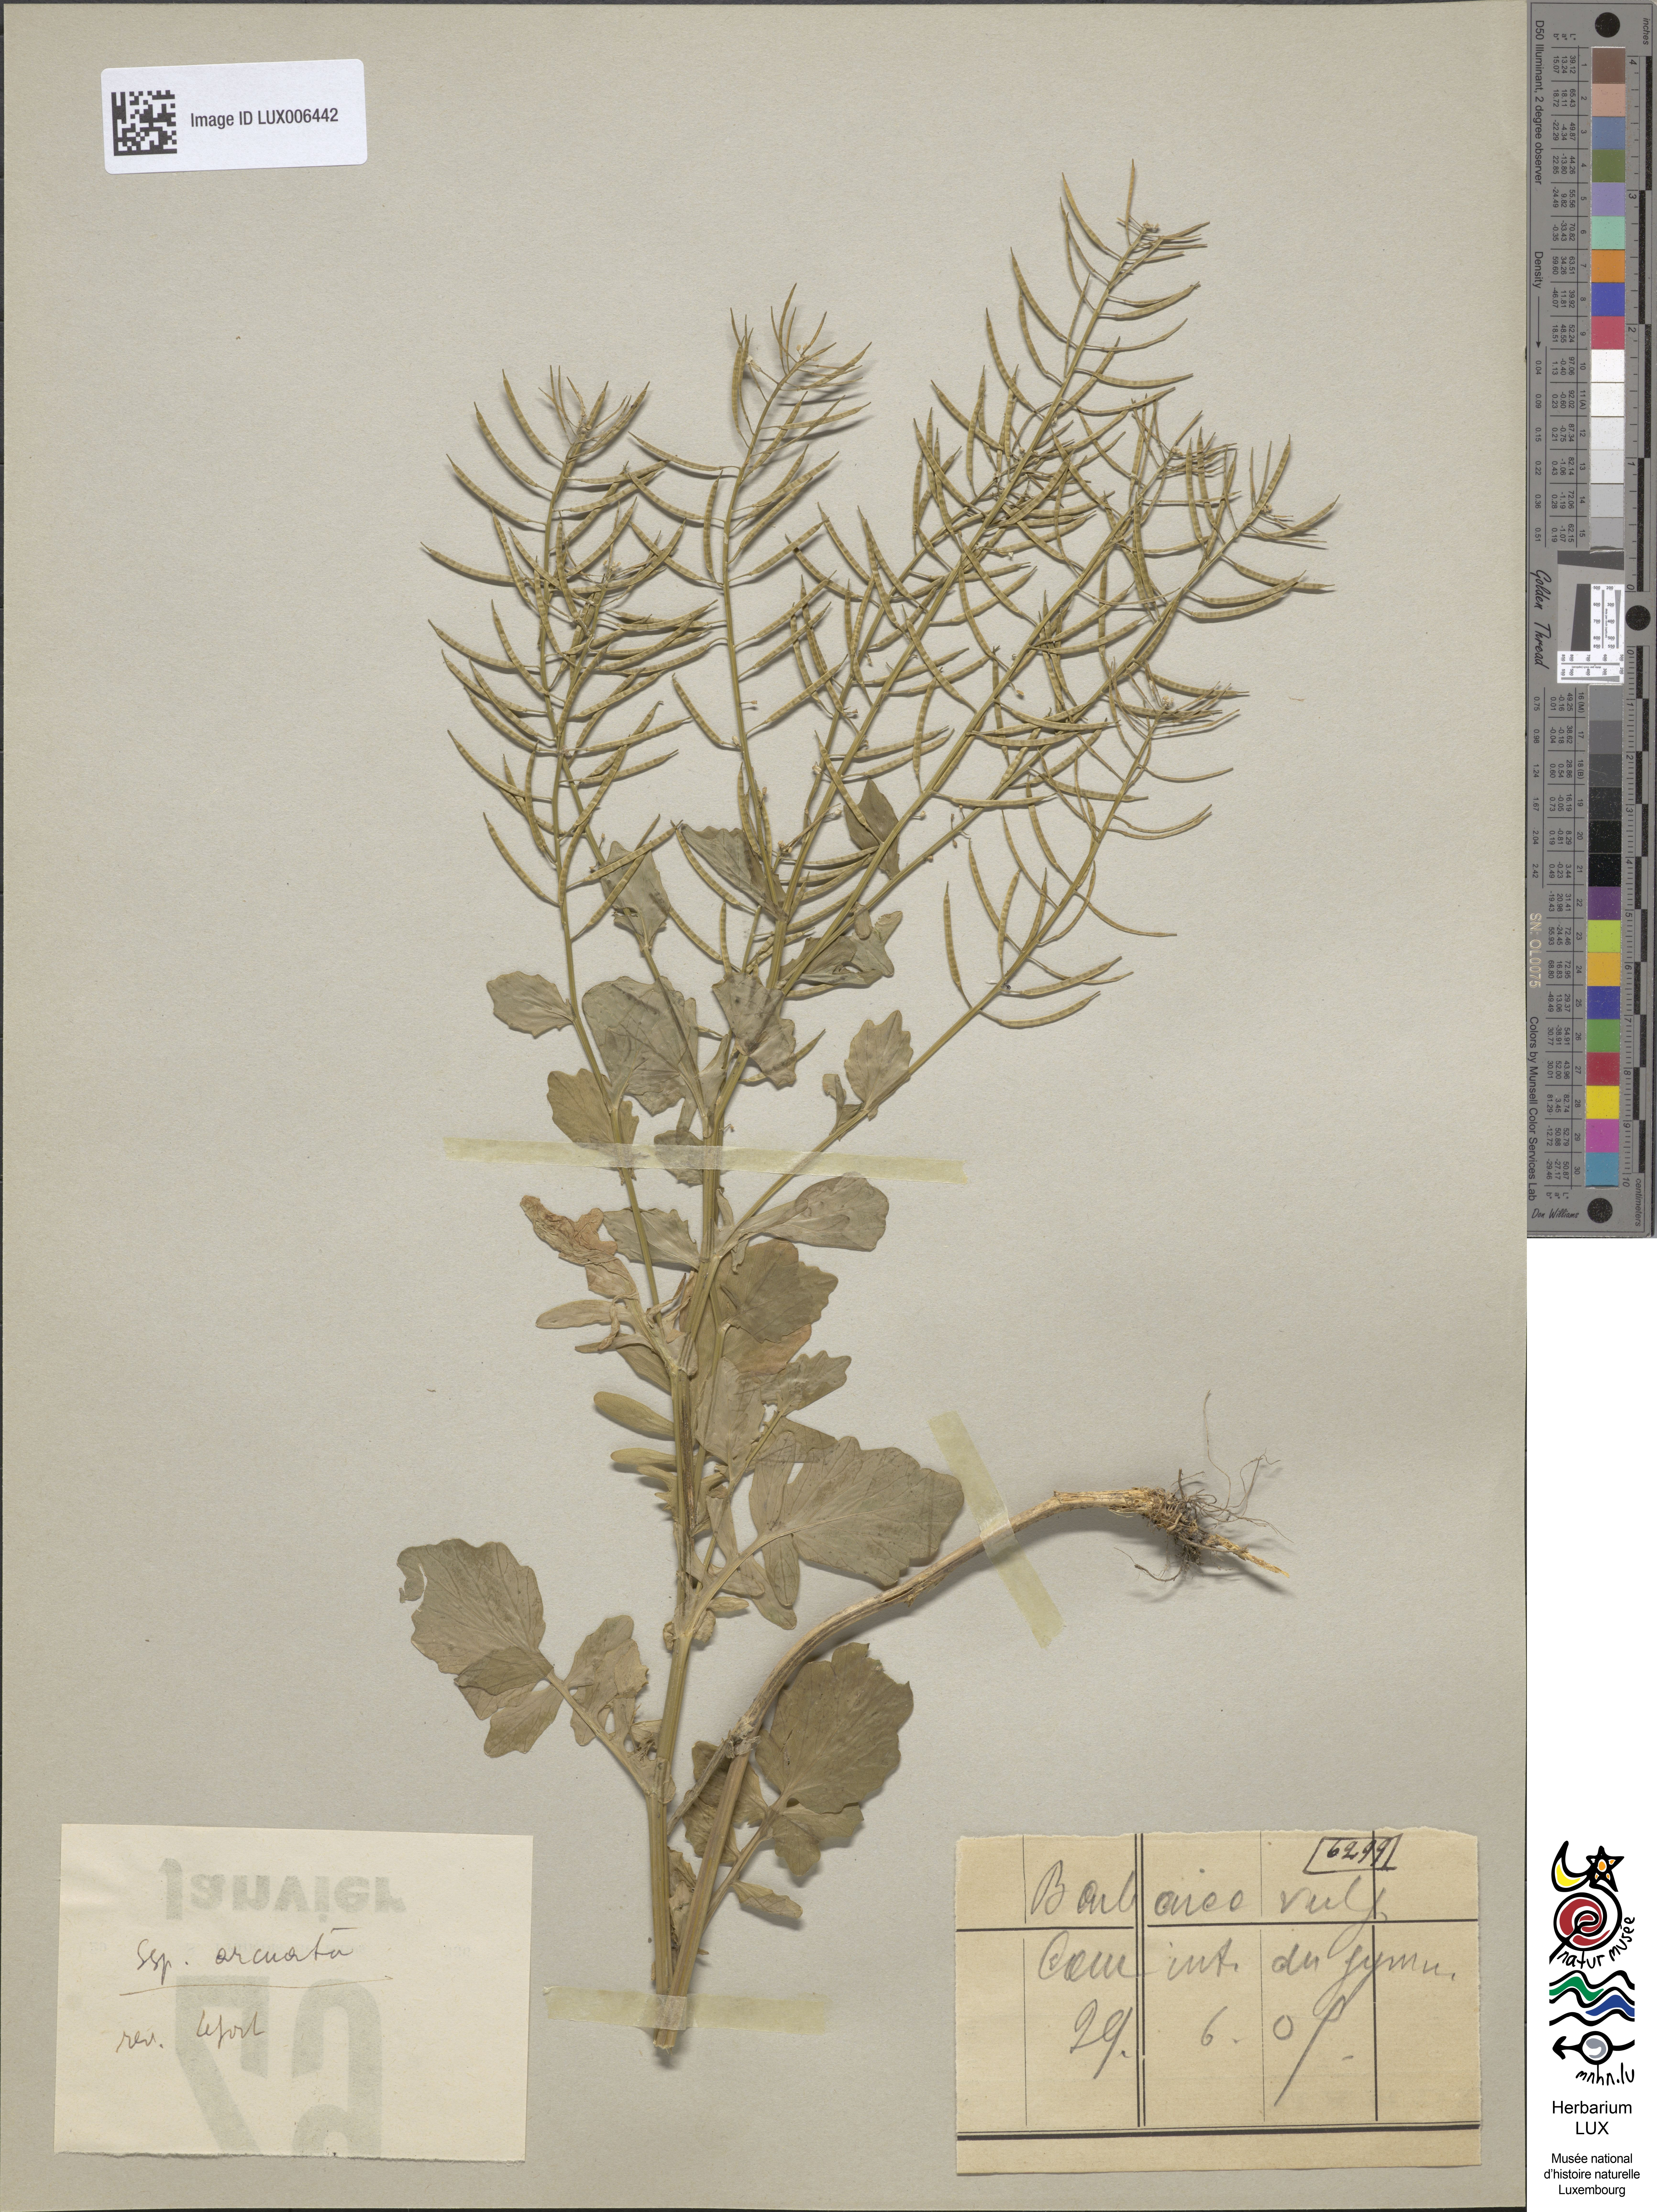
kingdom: Plantae
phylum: Tracheophyta
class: Magnoliopsida
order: Brassicales
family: Brassicaceae
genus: Barbarea
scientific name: Barbarea vulgaris
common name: Cressy-greens
